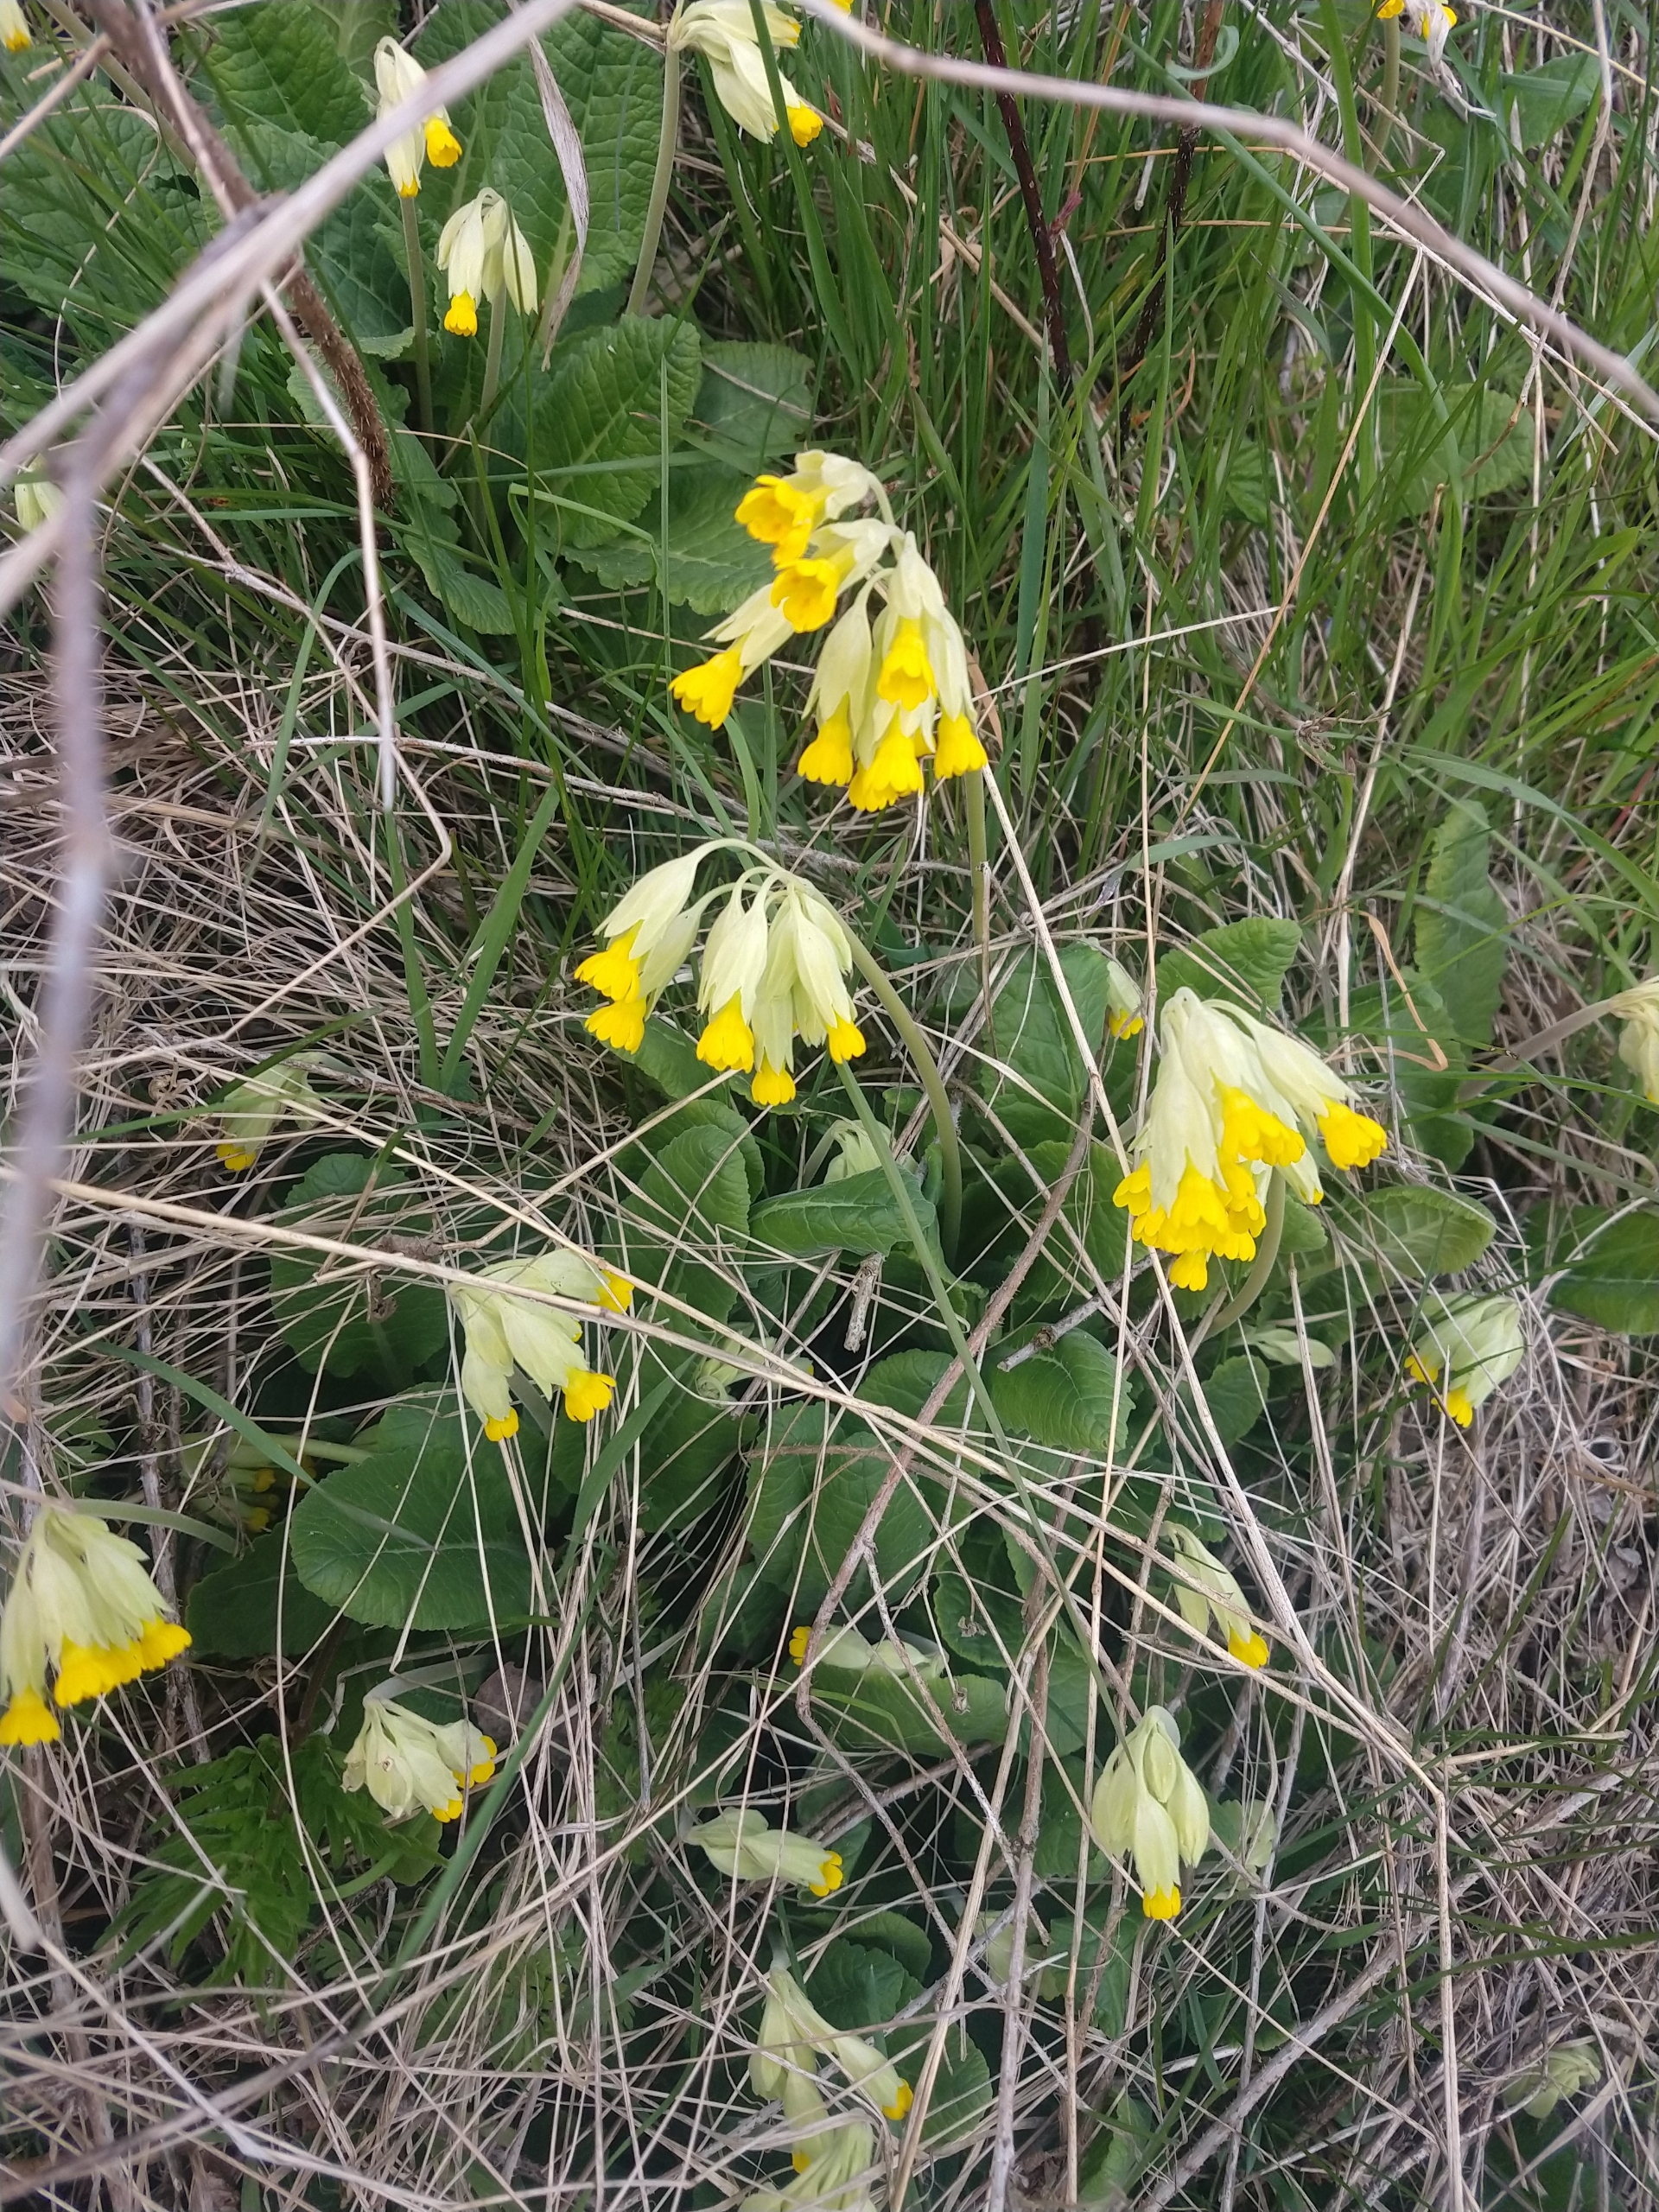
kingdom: Plantae
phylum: Tracheophyta
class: Magnoliopsida
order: Ericales
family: Primulaceae
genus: Primula
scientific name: Primula veris
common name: Hulkravet kodriver
